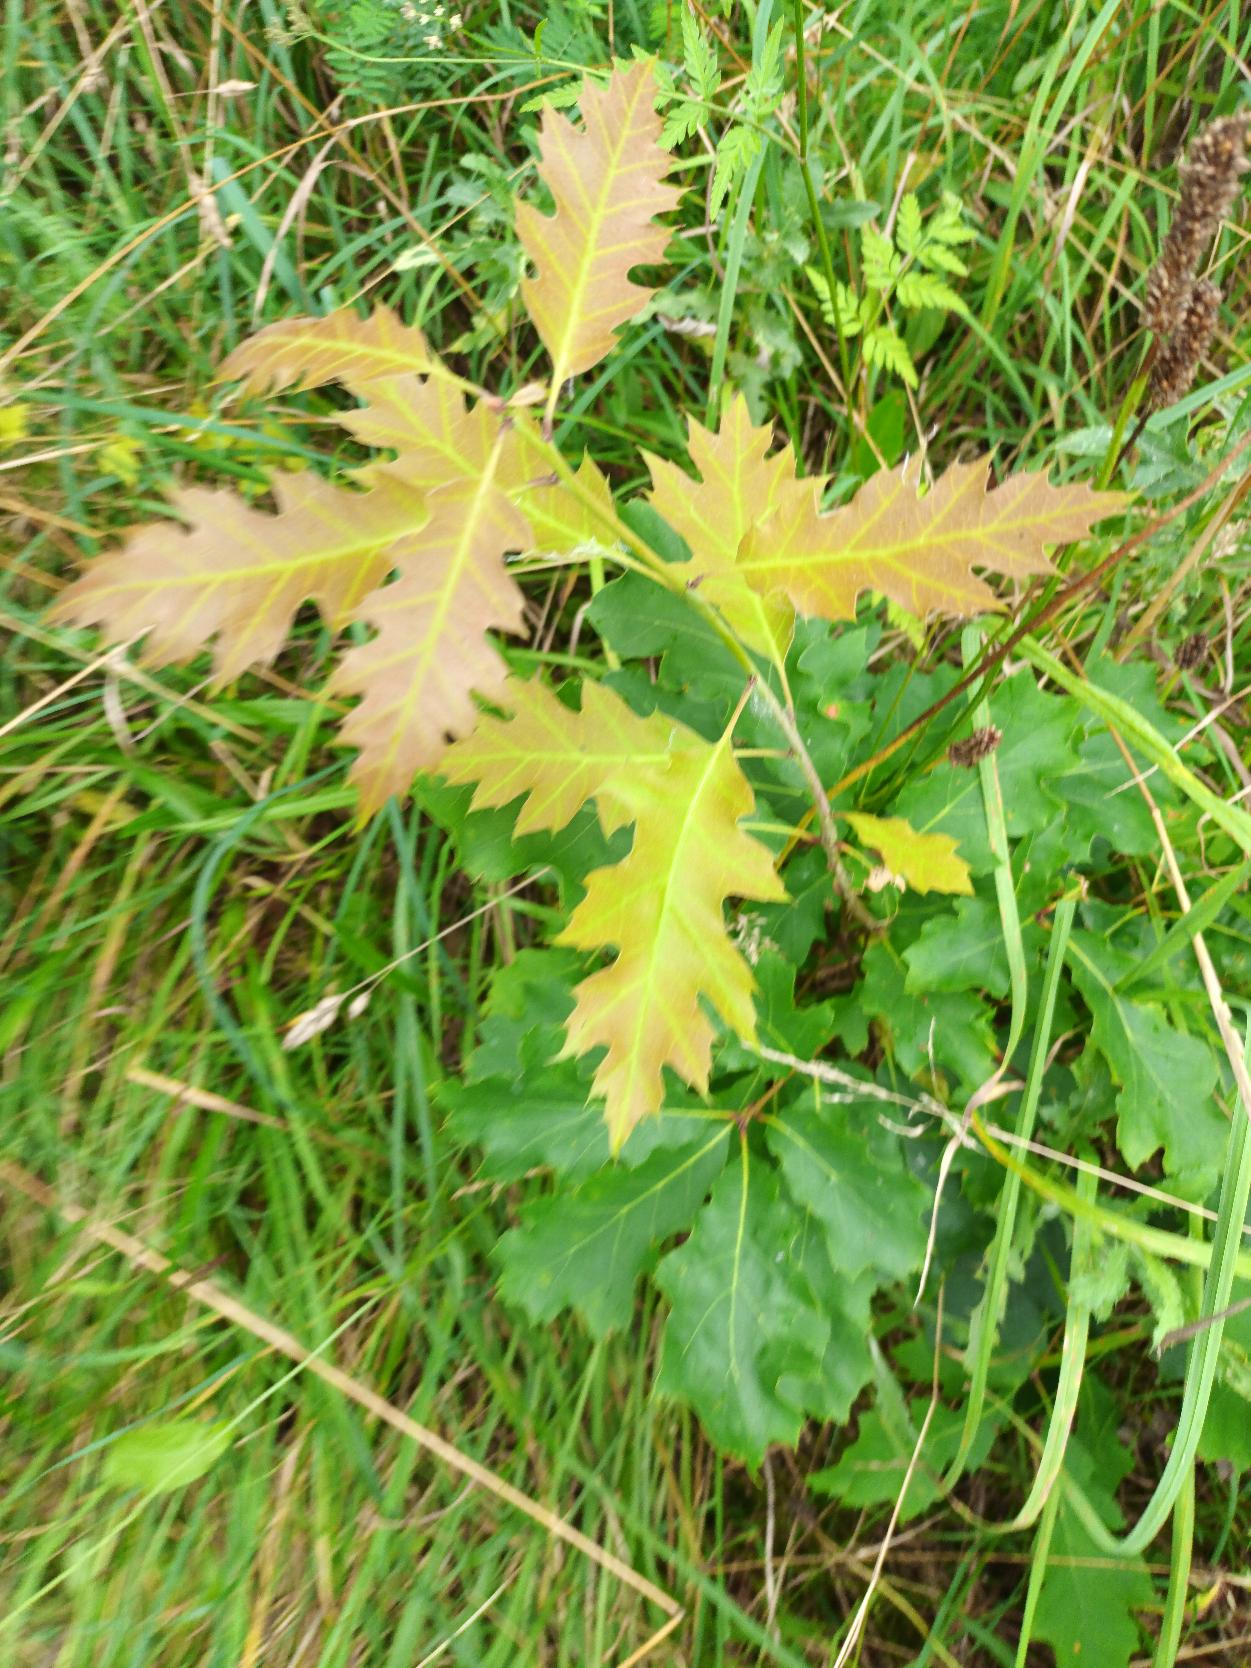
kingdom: Plantae
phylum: Tracheophyta
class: Magnoliopsida
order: Fagales
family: Fagaceae
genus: Quercus
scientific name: Quercus rubra
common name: Rød-eg
